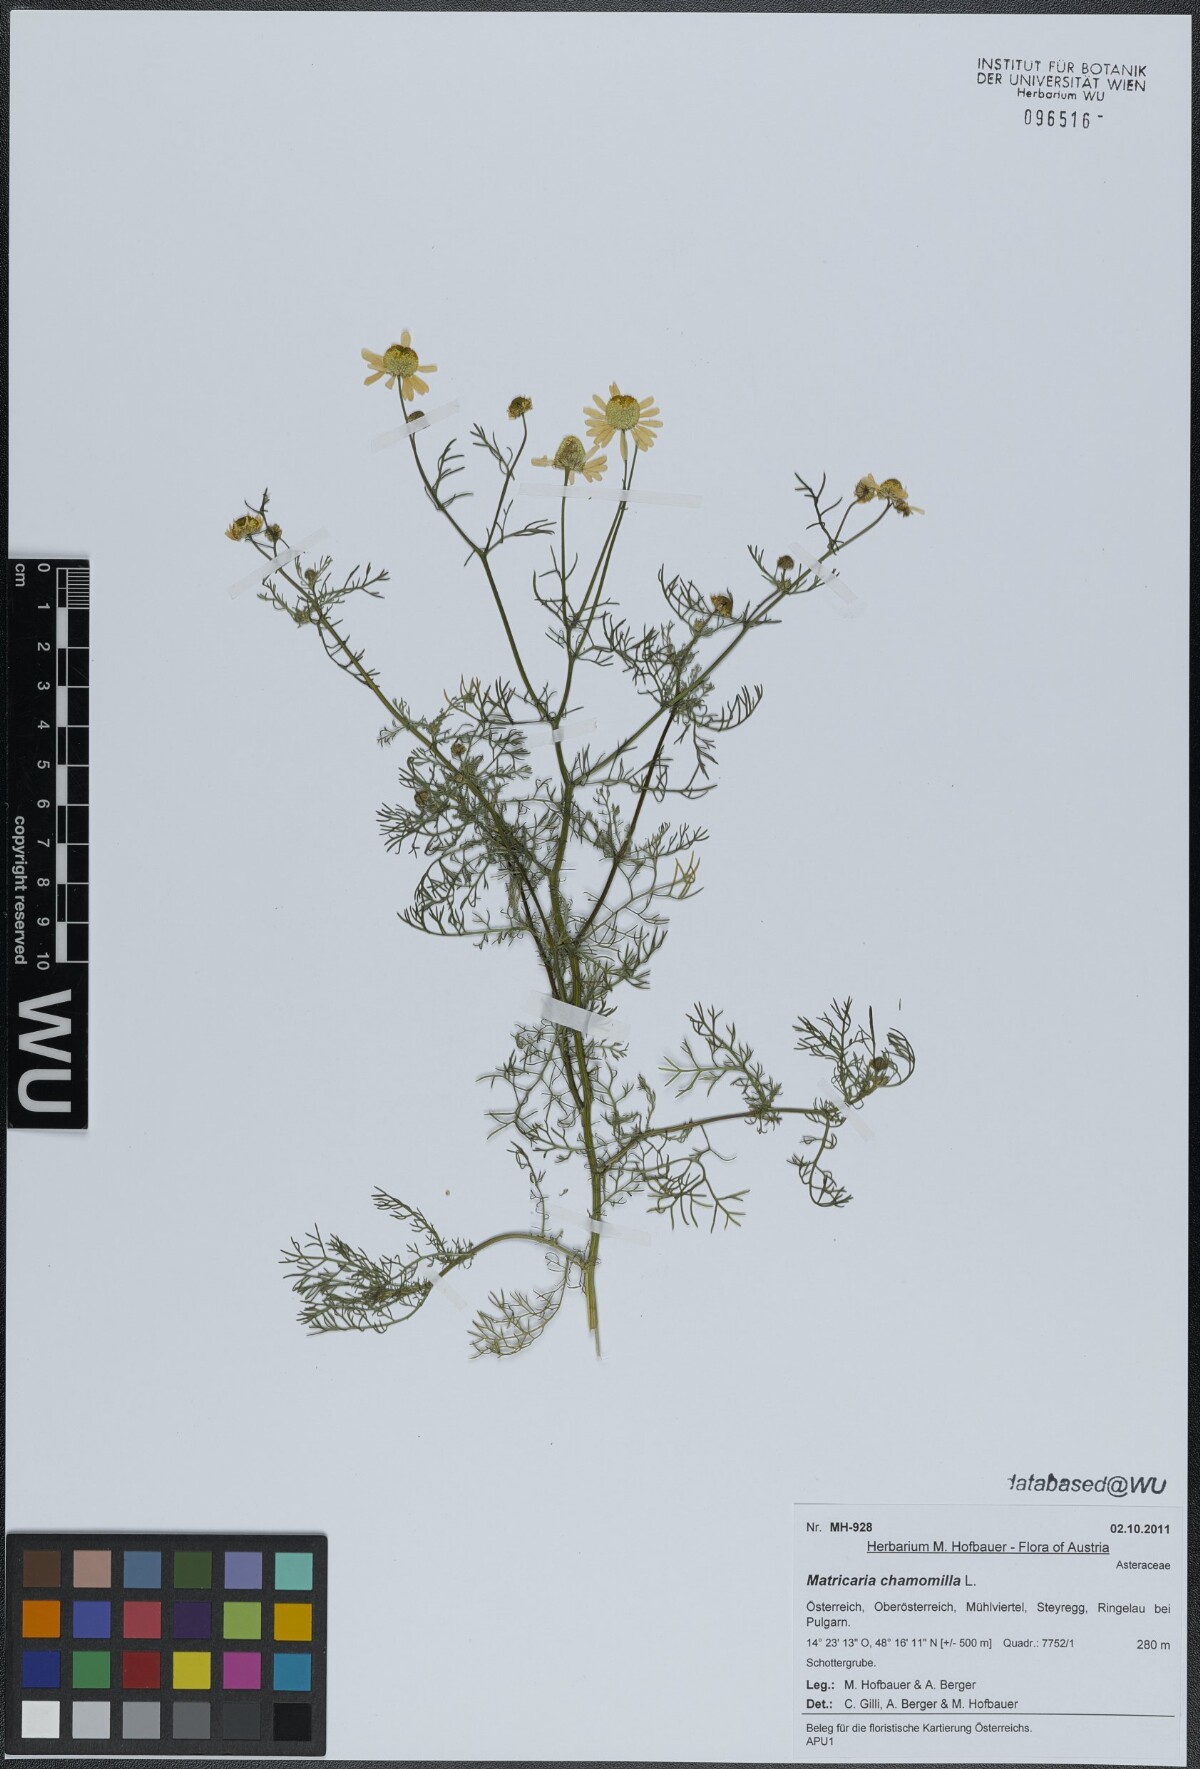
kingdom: Plantae
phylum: Tracheophyta
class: Magnoliopsida
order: Asterales
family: Asteraceae
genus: Matricaria
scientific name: Matricaria chamomilla
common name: Scented mayweed
